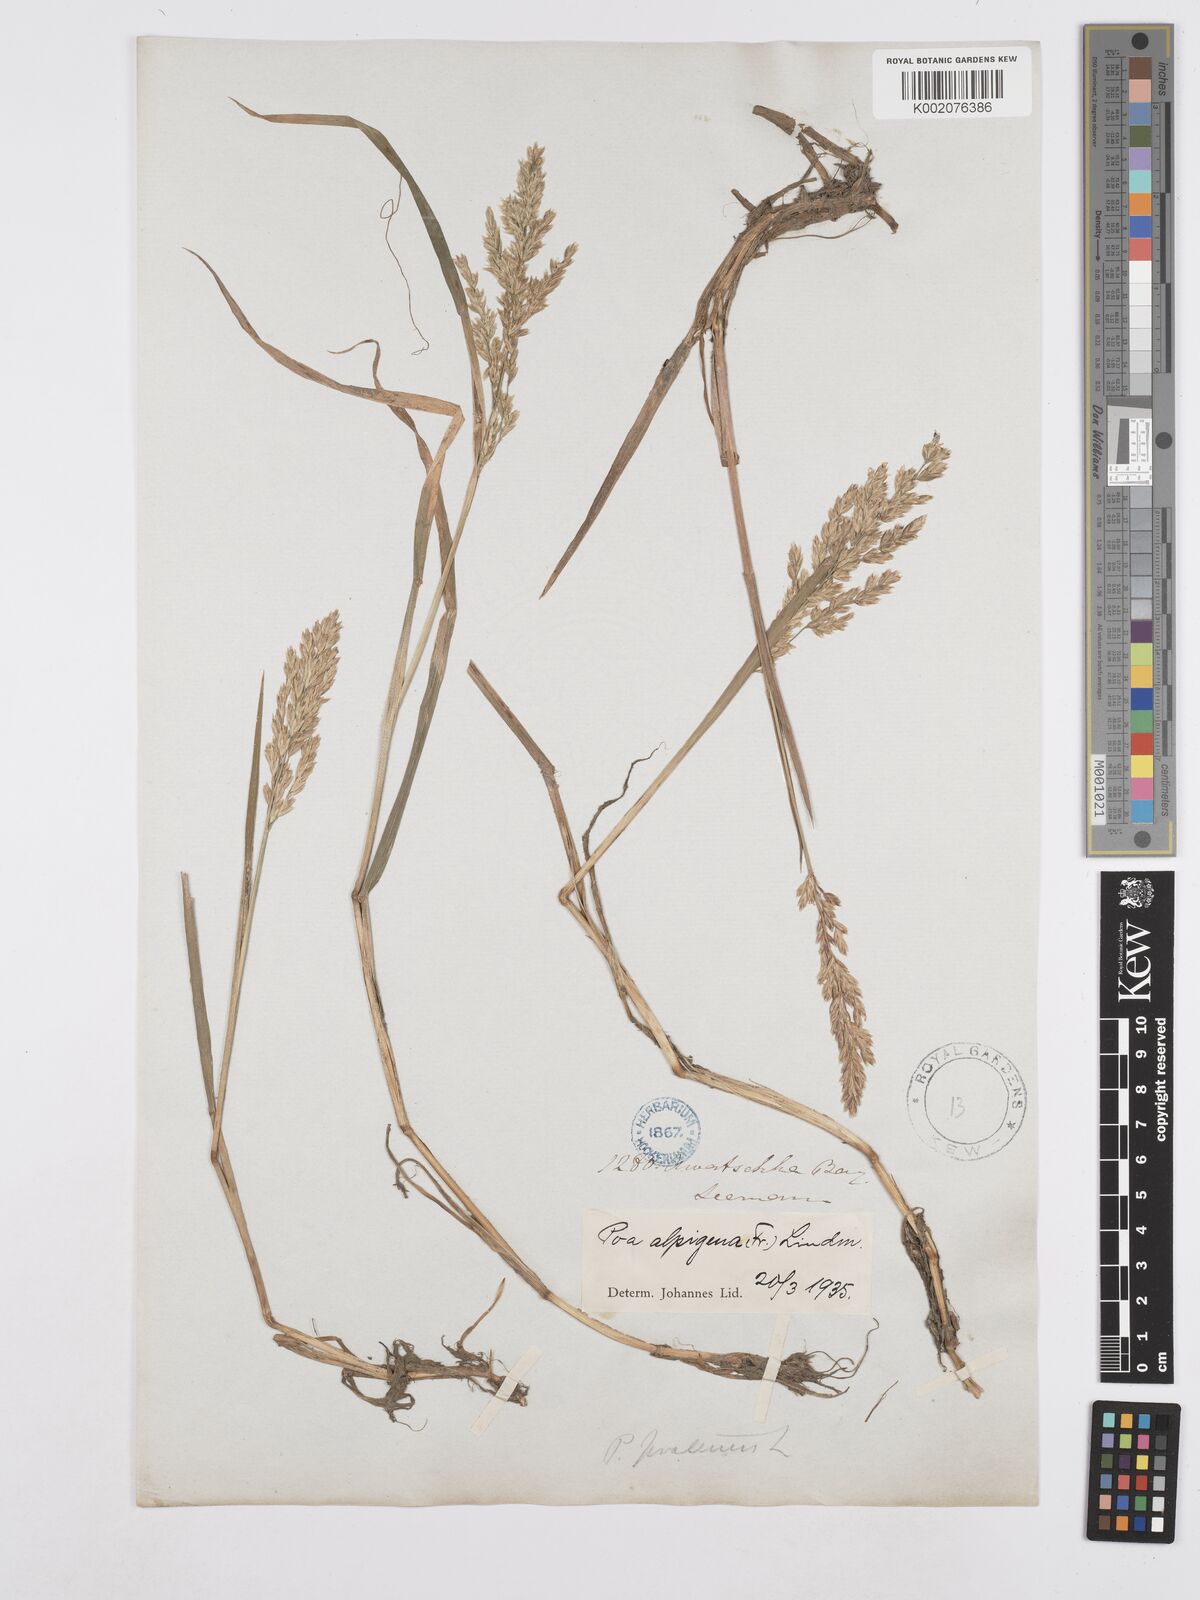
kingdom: Plantae
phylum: Tracheophyta
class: Liliopsida
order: Poales
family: Poaceae
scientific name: Poaceae
